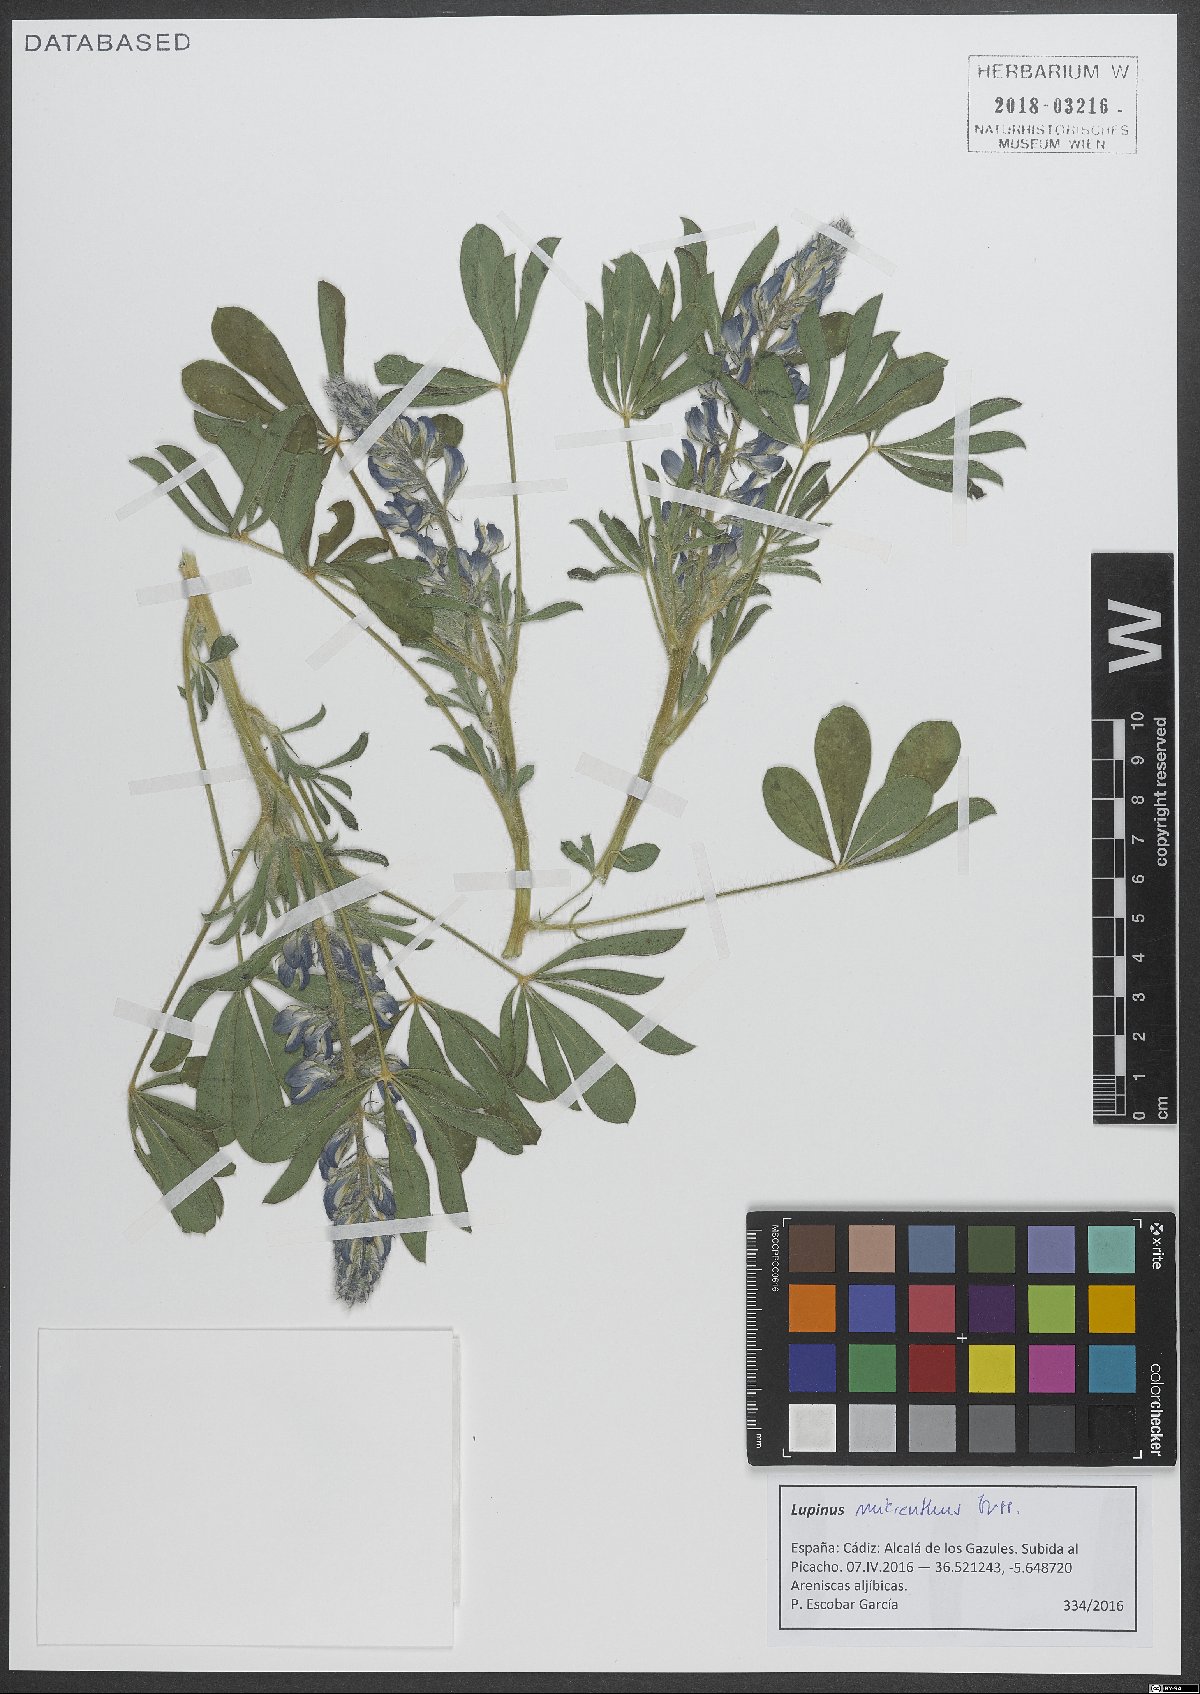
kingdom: Plantae
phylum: Tracheophyta
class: Magnoliopsida
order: Fabales
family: Fabaceae
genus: Lupinus
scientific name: Lupinus gussoneanus
